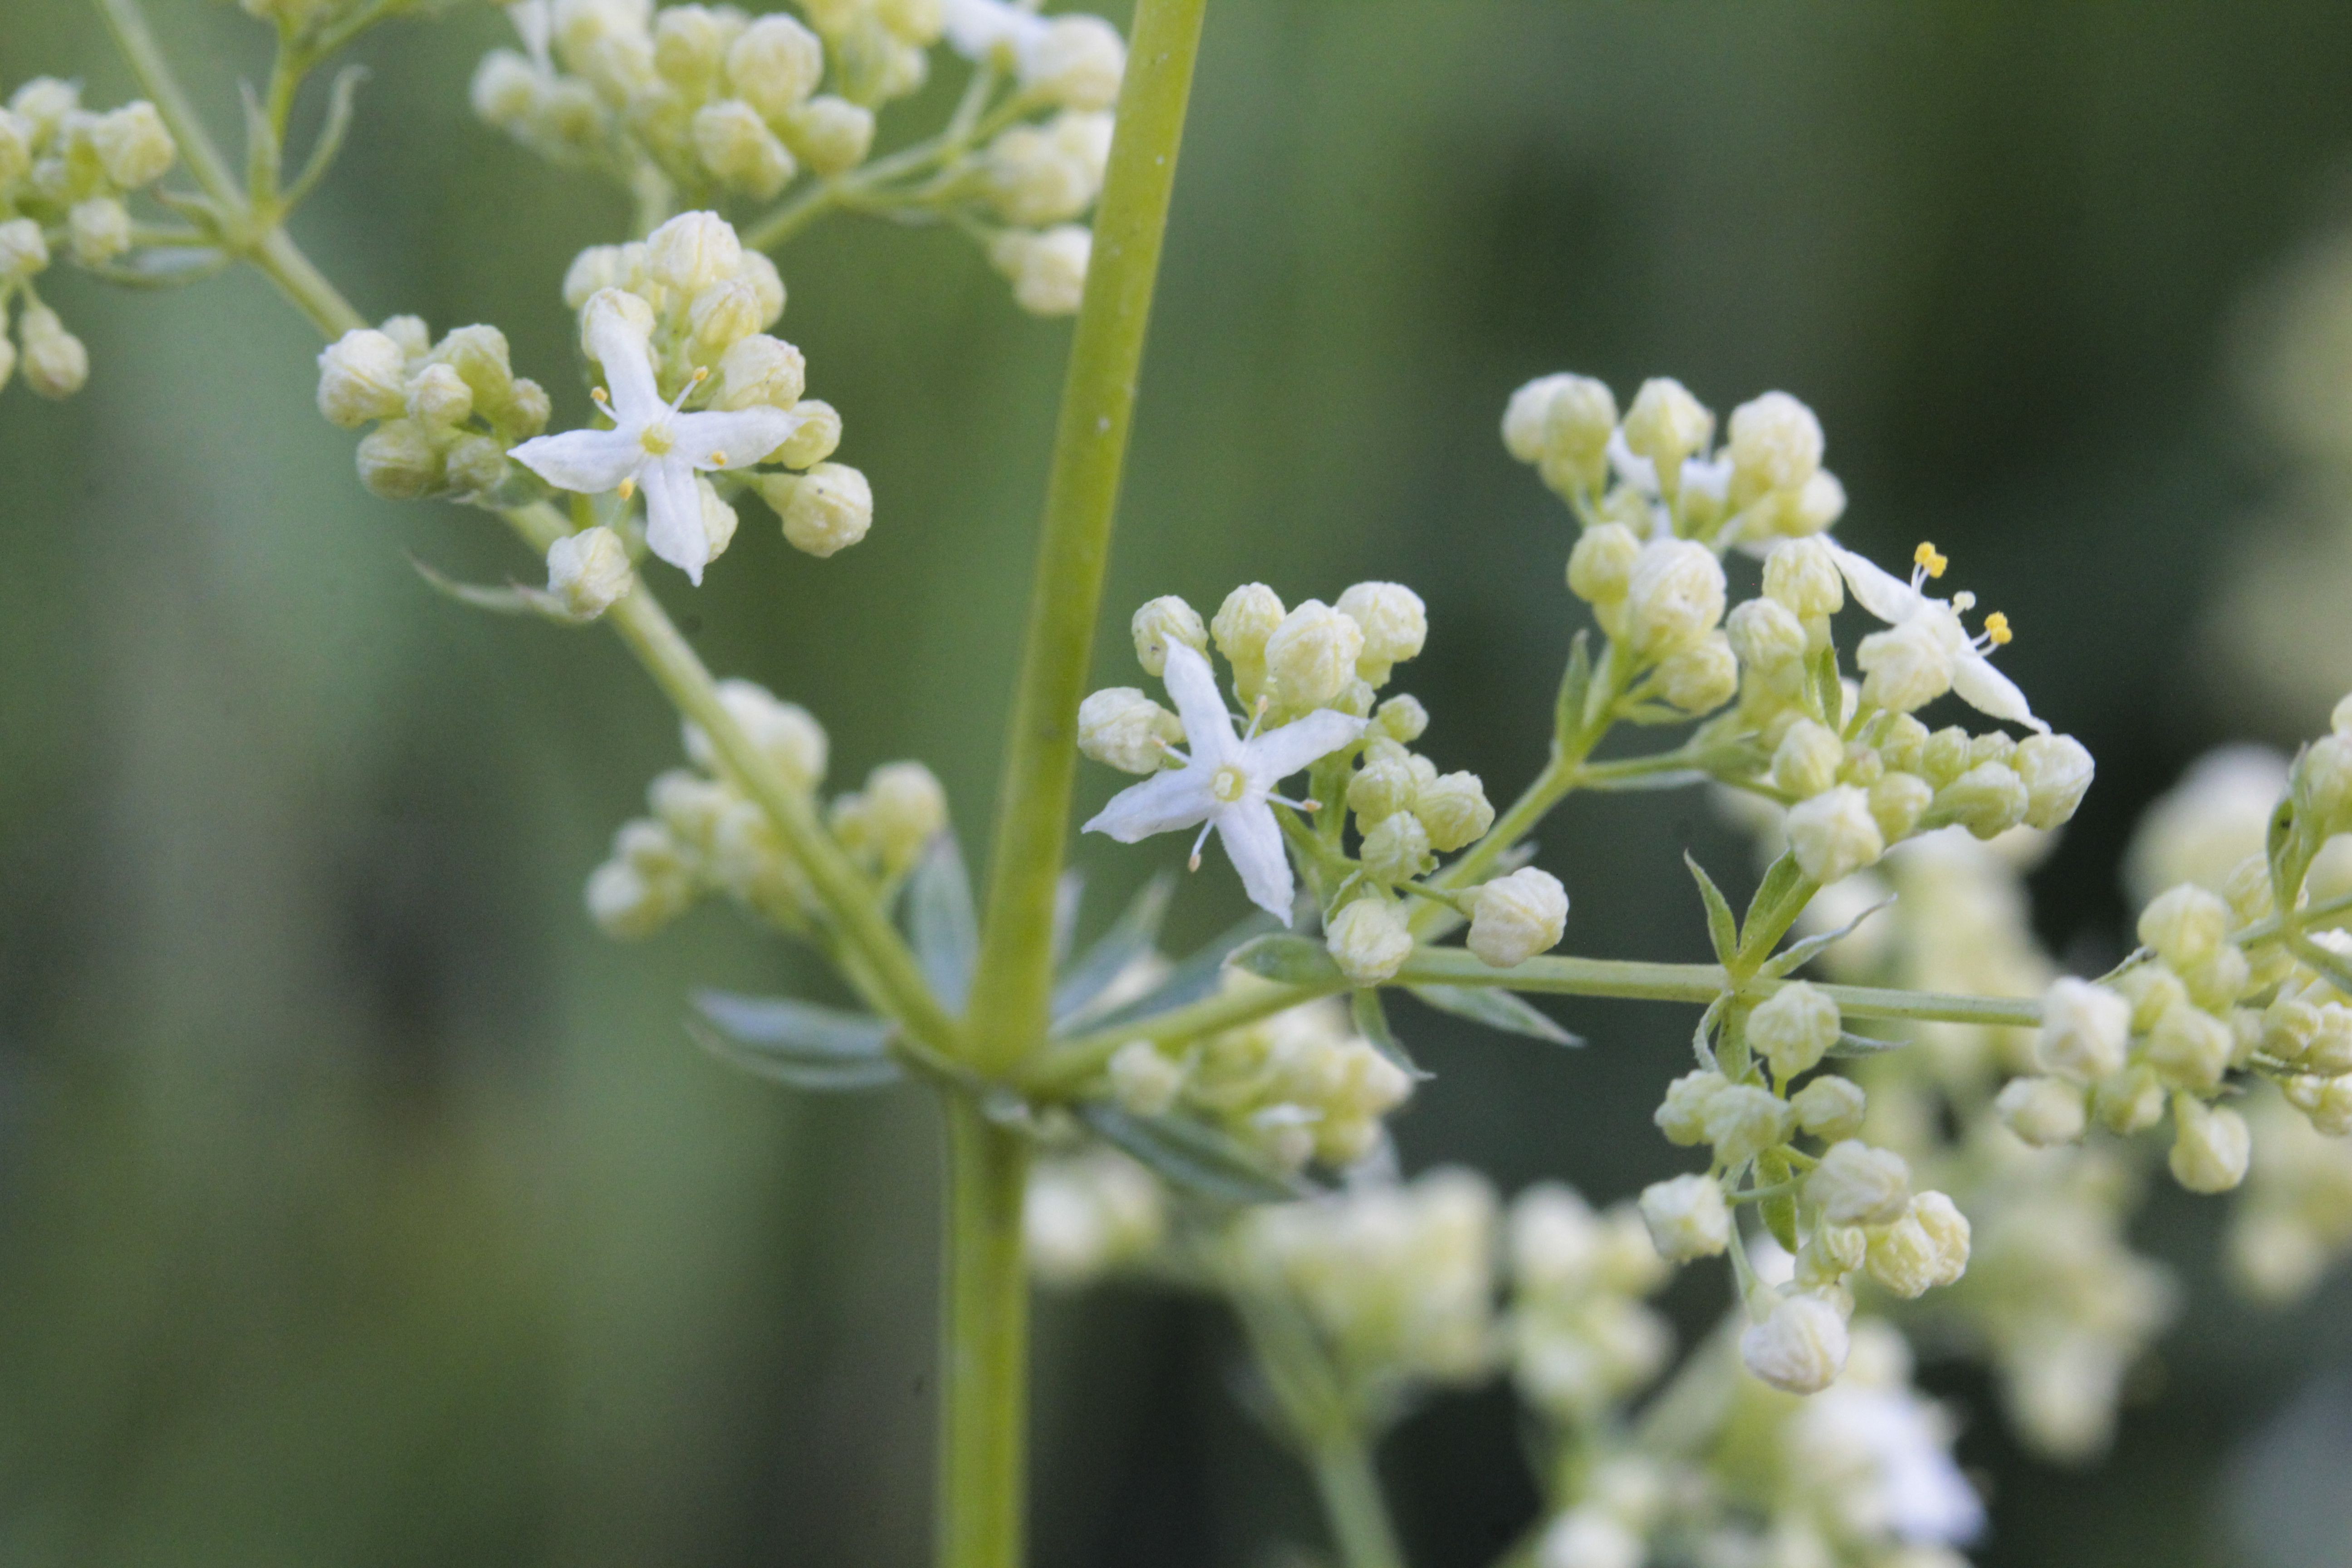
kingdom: Plantae
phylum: Tracheophyta
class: Magnoliopsida
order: Gentianales
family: Rubiaceae
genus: Galium
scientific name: Galium
